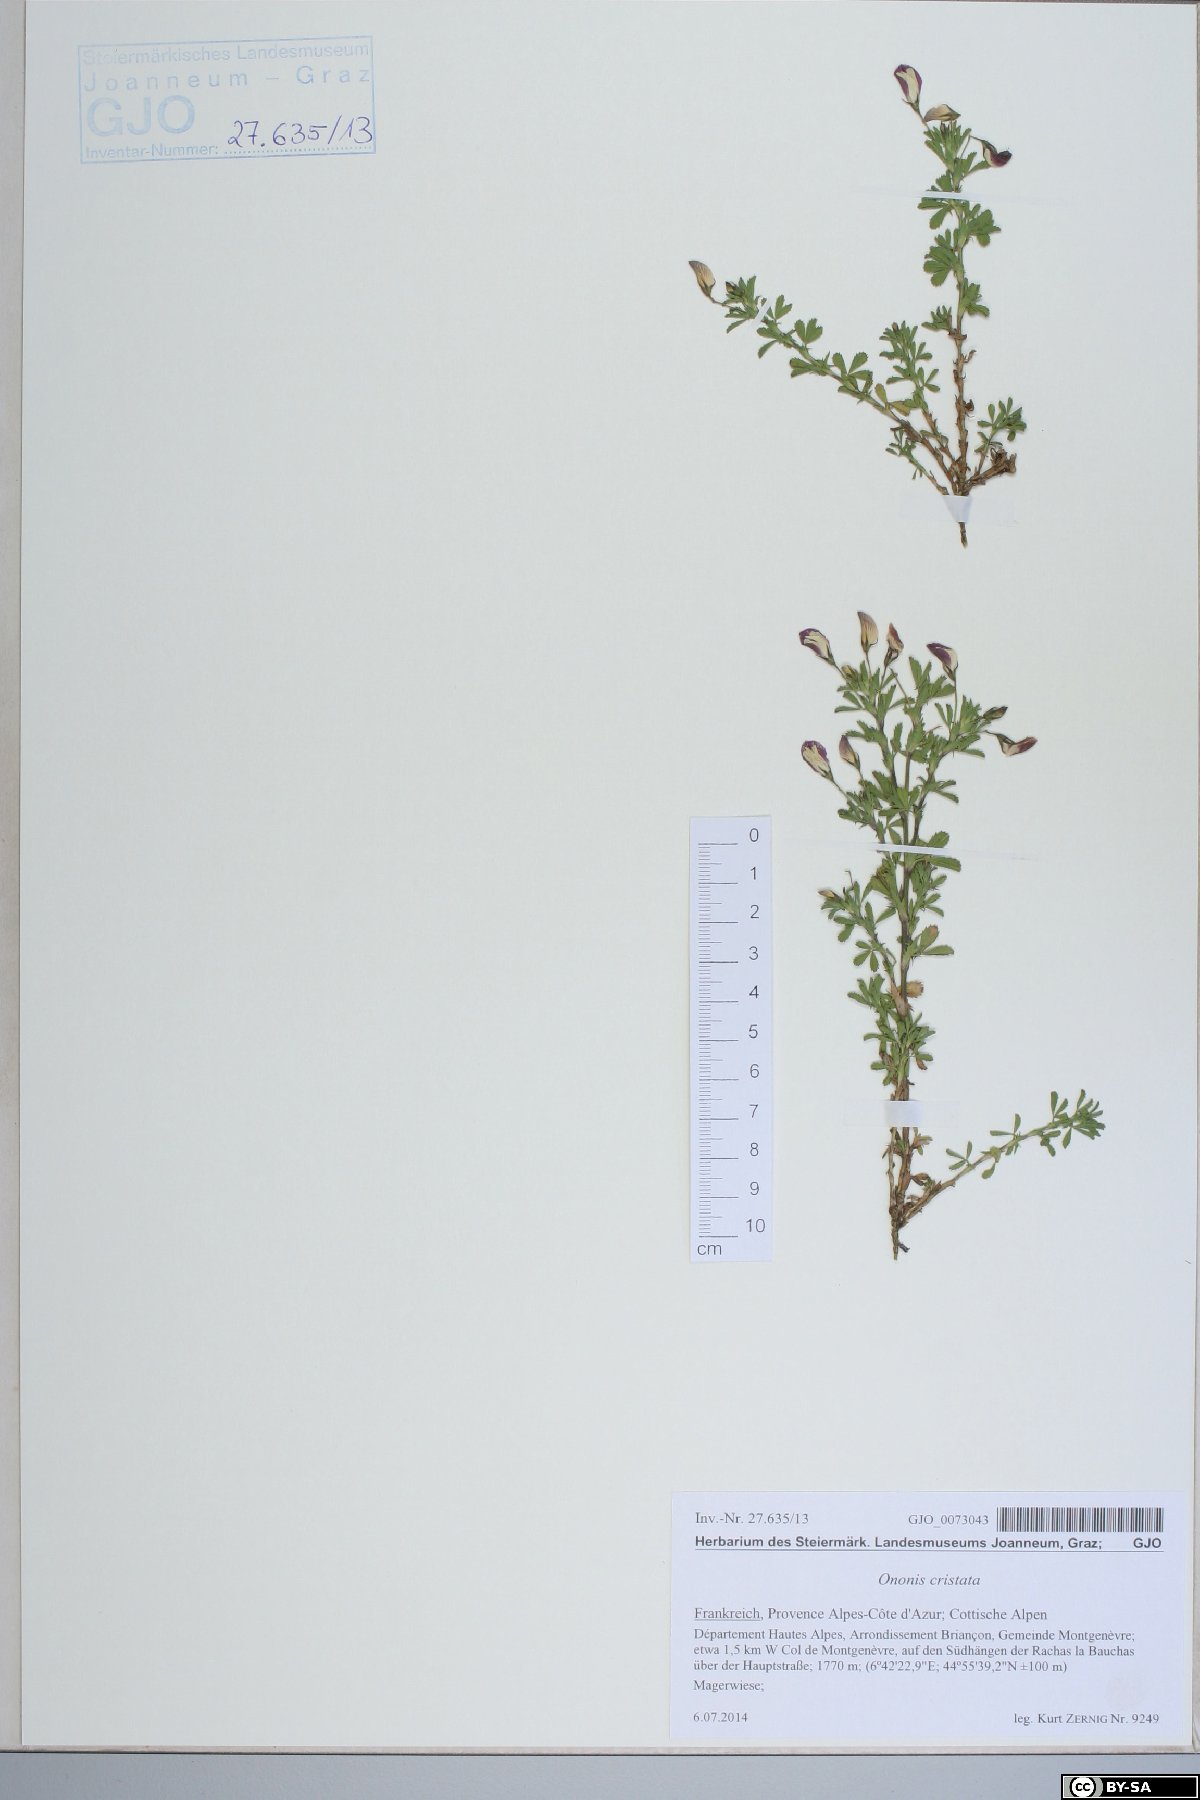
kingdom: Plantae
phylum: Tracheophyta
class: Magnoliopsida
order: Fabales
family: Fabaceae
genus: Ononis
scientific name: Ononis cristata
